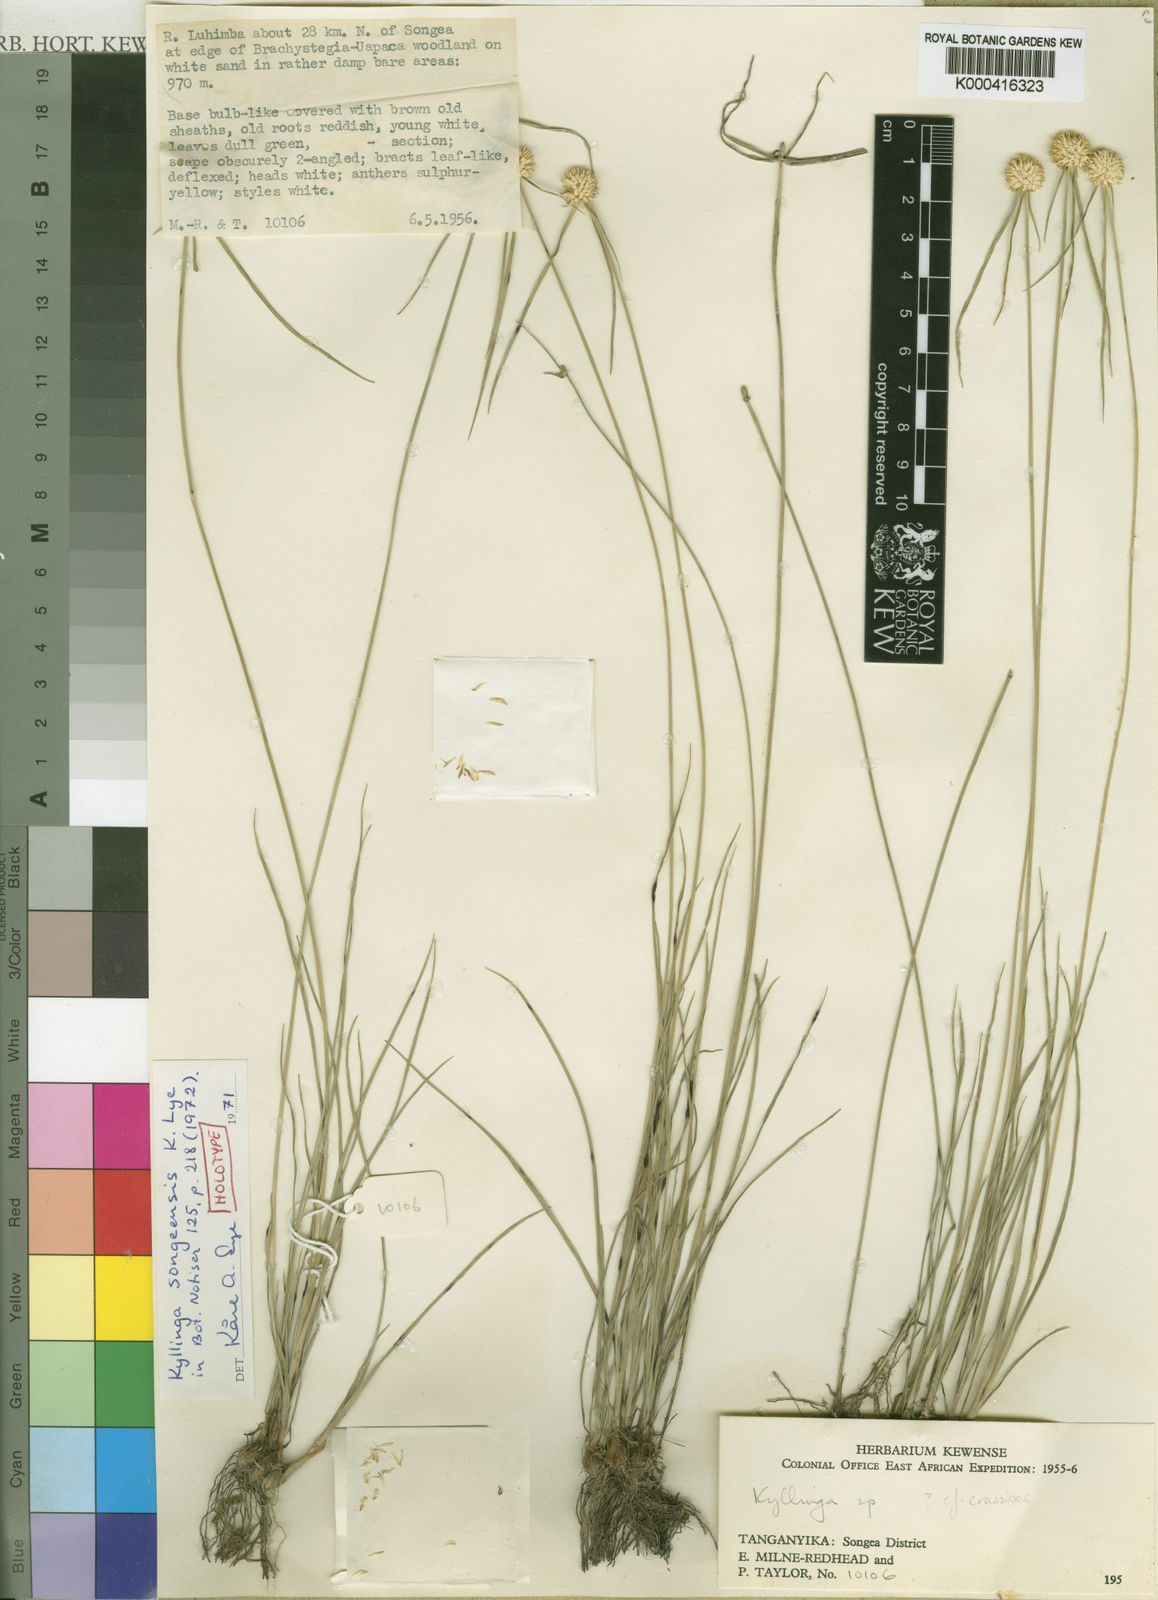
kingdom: Plantae
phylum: Tracheophyta
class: Liliopsida
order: Poales
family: Cyperaceae
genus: Cyperus
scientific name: Cyperus songeensis
